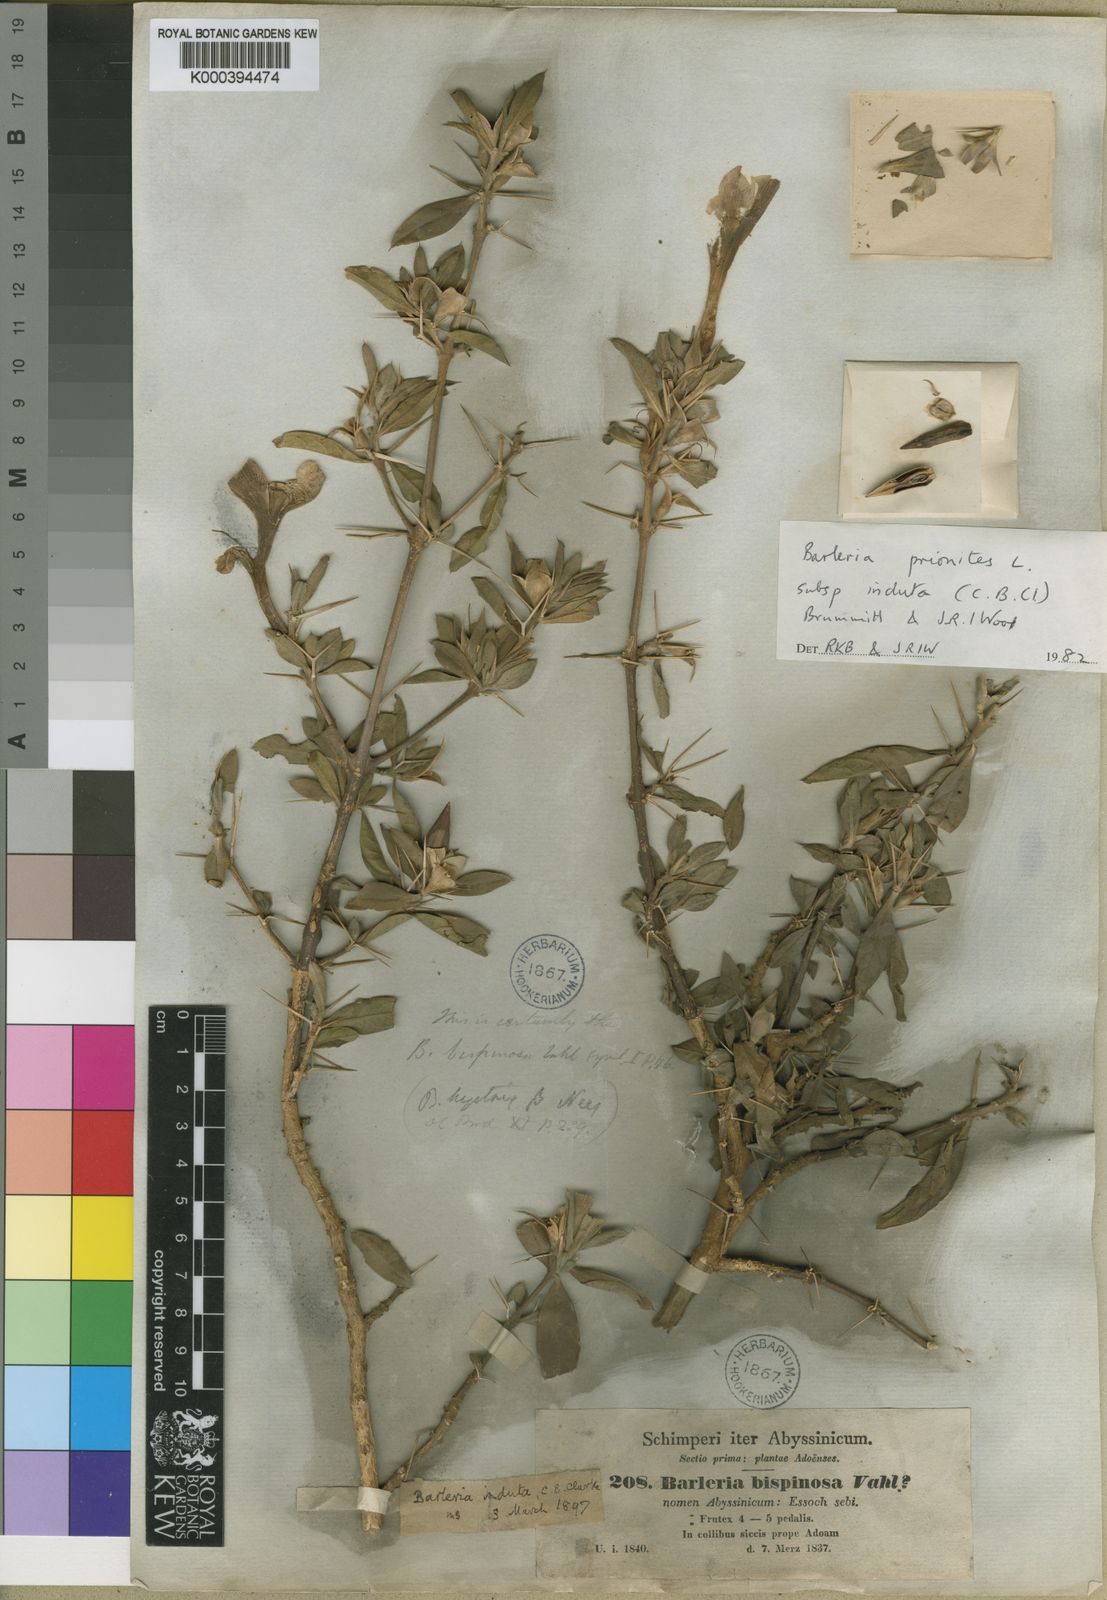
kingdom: Plantae
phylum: Tracheophyta
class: Magnoliopsida
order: Lamiales
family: Acanthaceae
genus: Barleria
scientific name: Barleria prionitis
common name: Barleria
